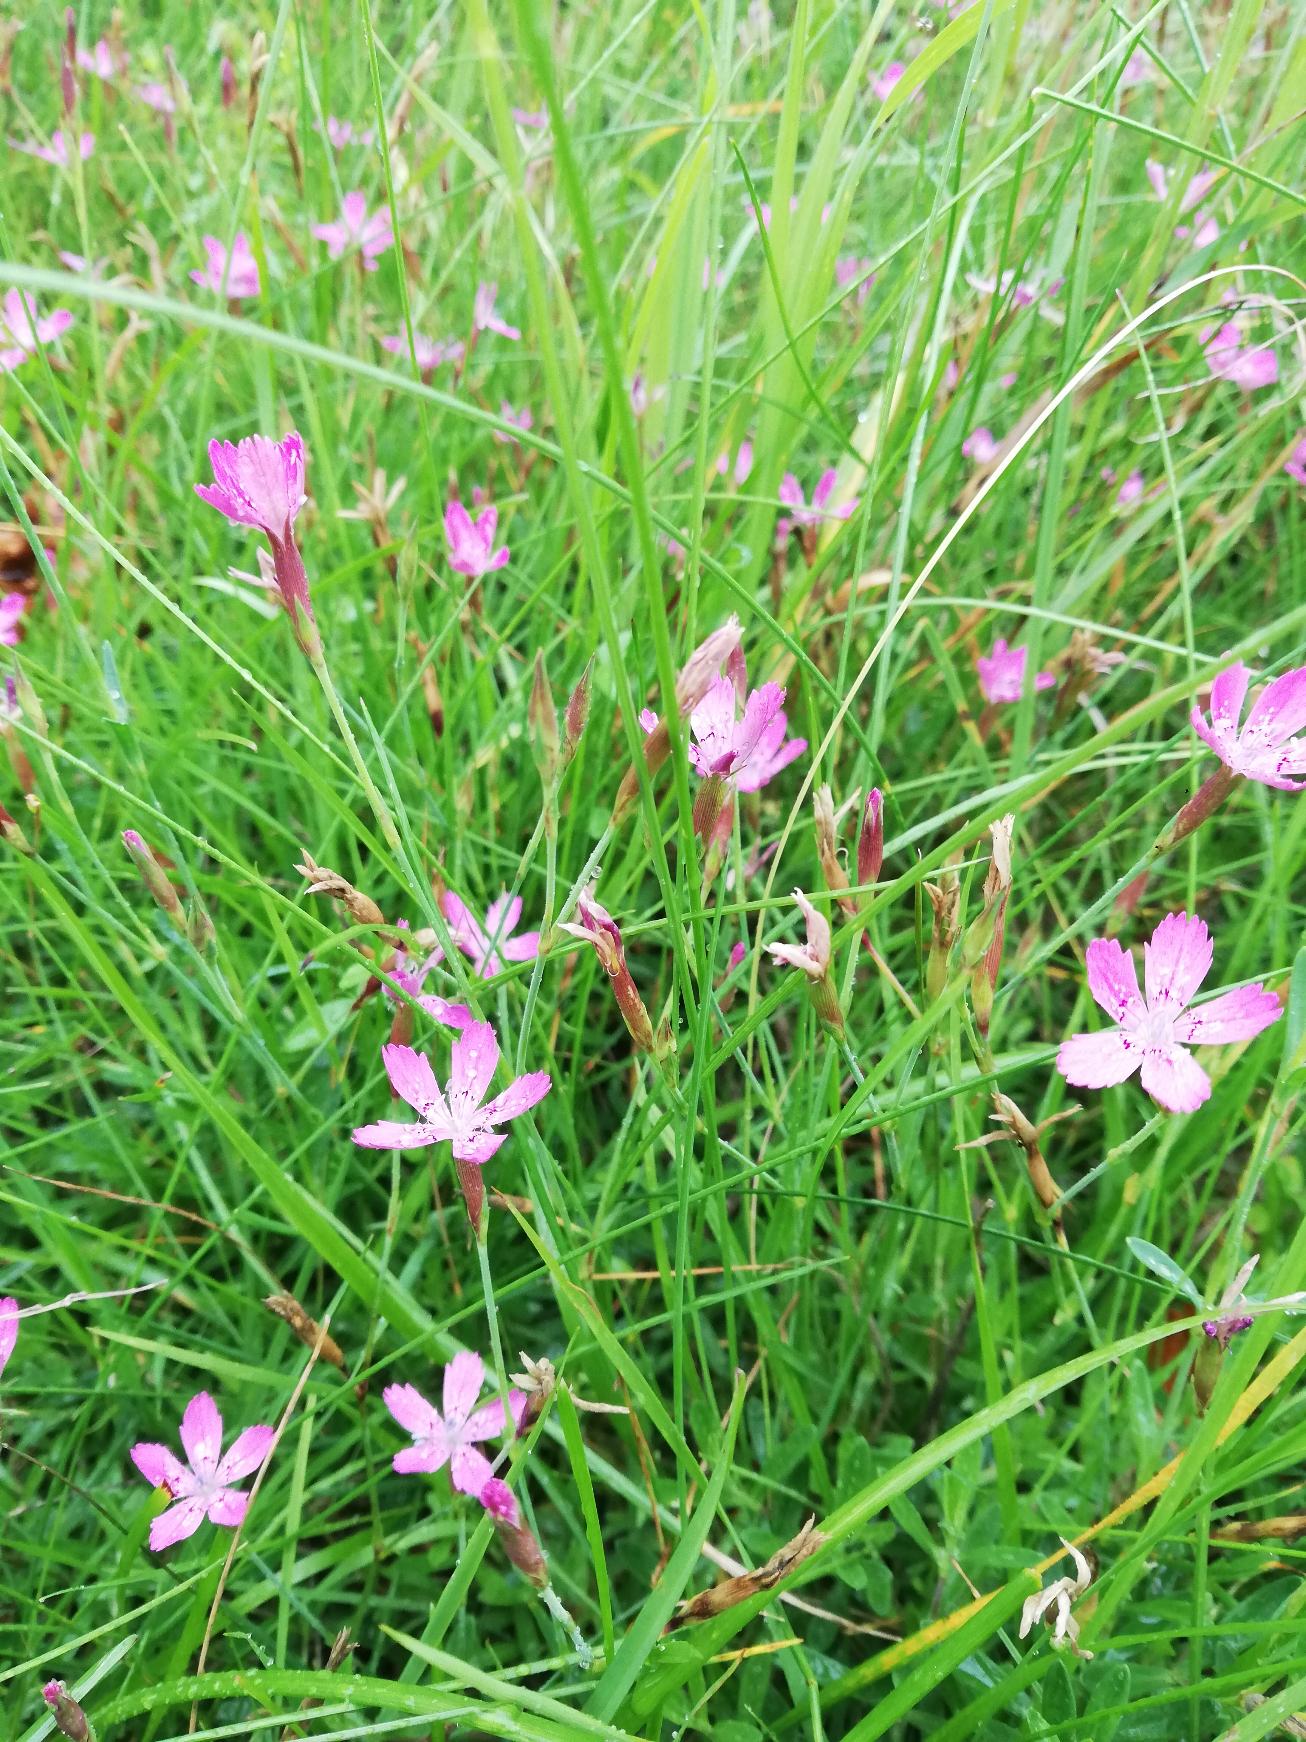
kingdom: Plantae
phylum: Tracheophyta
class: Magnoliopsida
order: Caryophyllales
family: Caryophyllaceae
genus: Dianthus
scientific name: Dianthus deltoides
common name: Bakke-nellike
